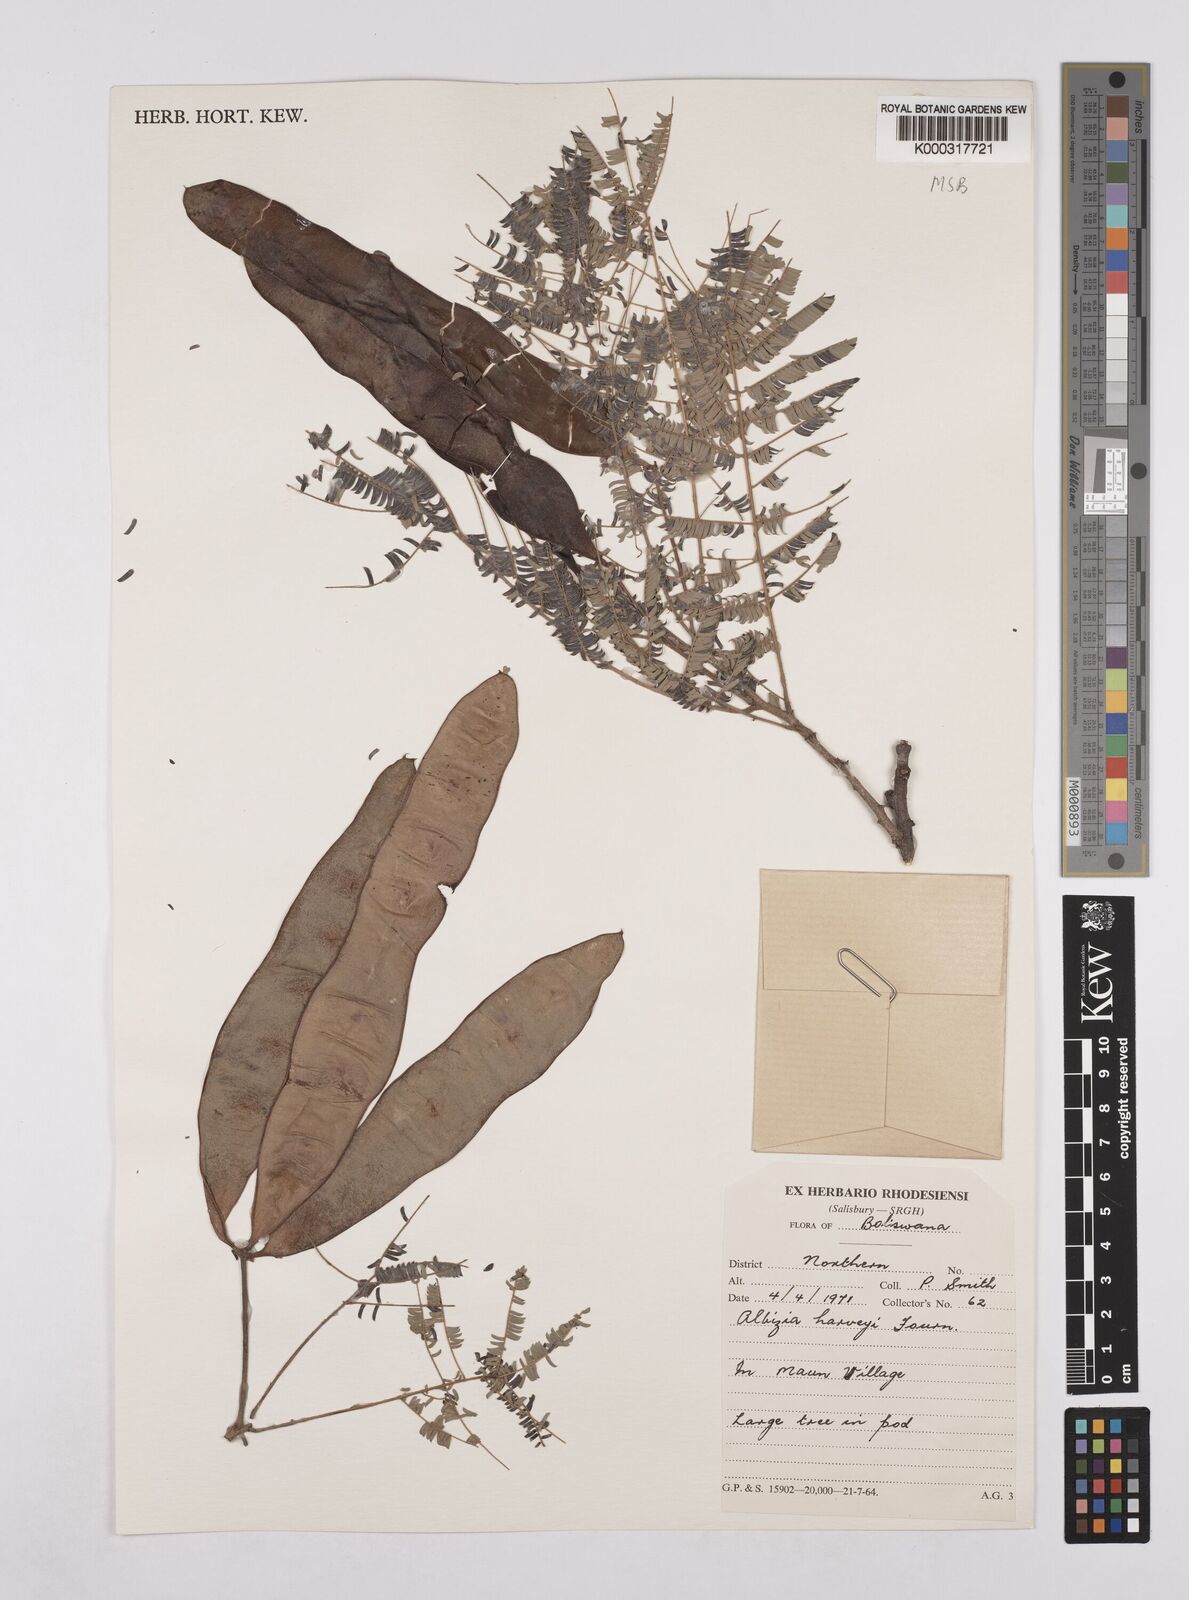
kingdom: Plantae
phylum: Tracheophyta
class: Magnoliopsida
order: Fabales
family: Fabaceae
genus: Albizia
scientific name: Albizia harveyi
